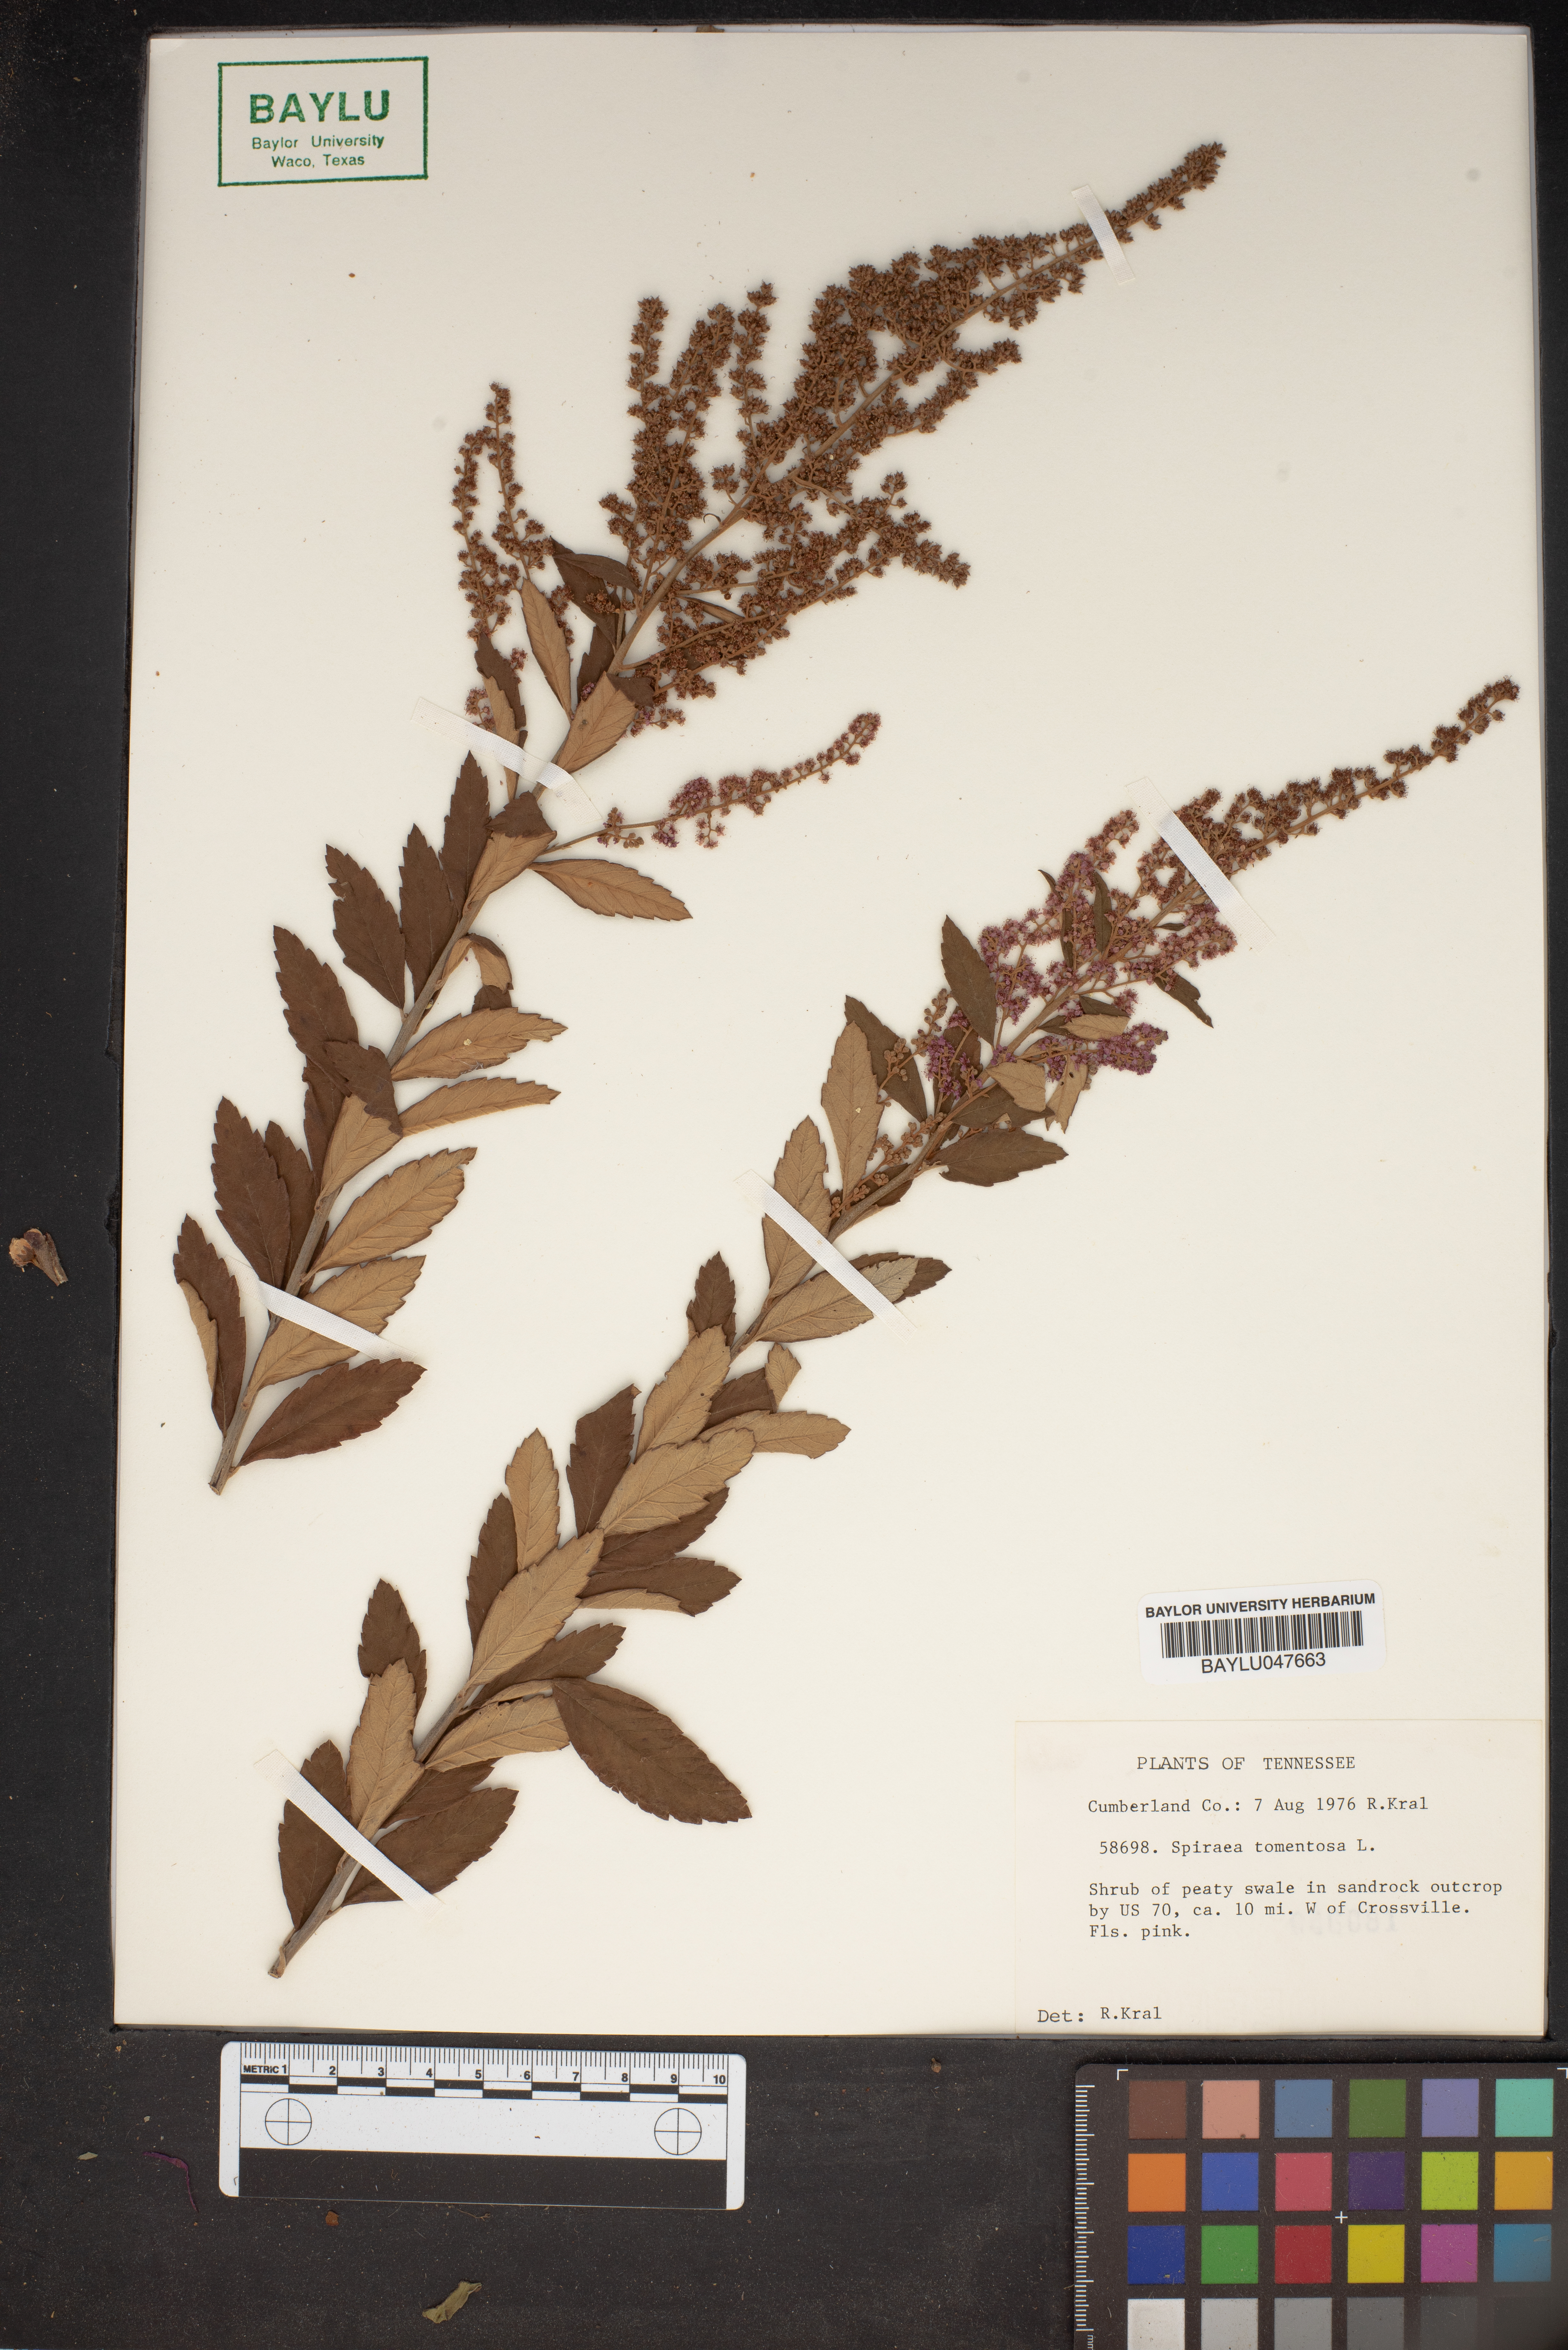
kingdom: Plantae
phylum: Tracheophyta
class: Magnoliopsida
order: Rosales
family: Rosaceae
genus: Spiraea
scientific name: Spiraea tomentosa
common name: Hardhack
